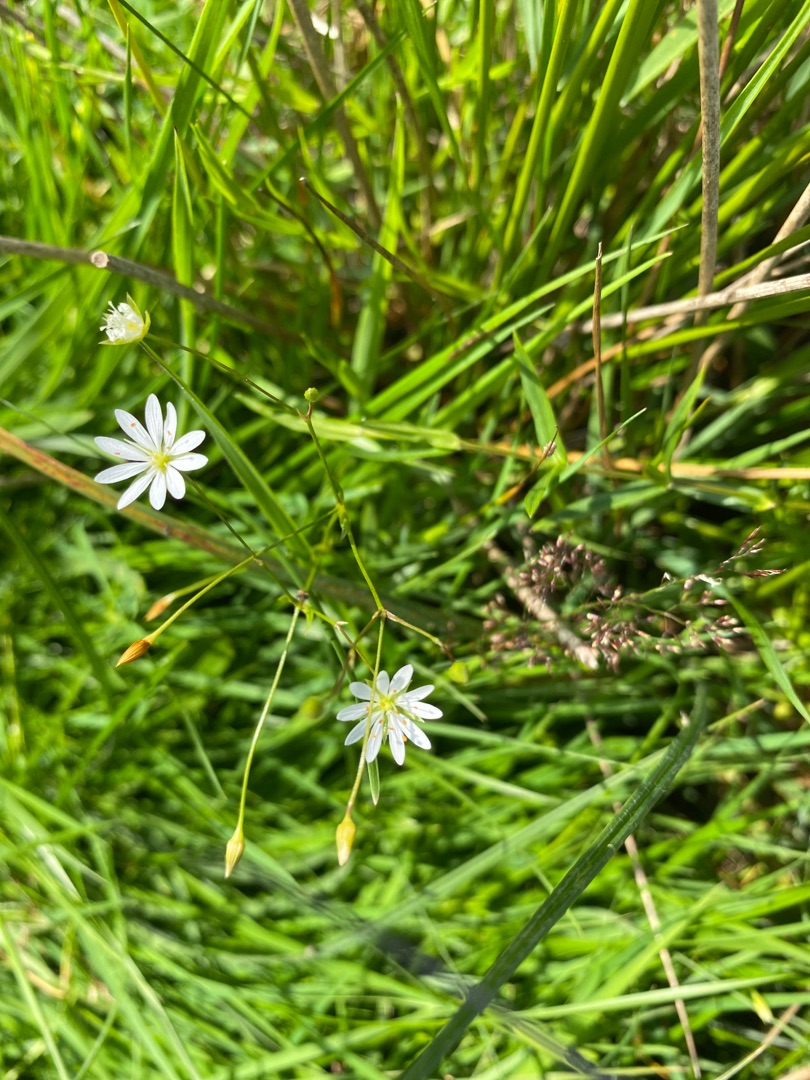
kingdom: Plantae
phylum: Tracheophyta
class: Magnoliopsida
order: Caryophyllales
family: Caryophyllaceae
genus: Stellaria
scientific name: Stellaria graminea
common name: Græsbladet fladstjerne
